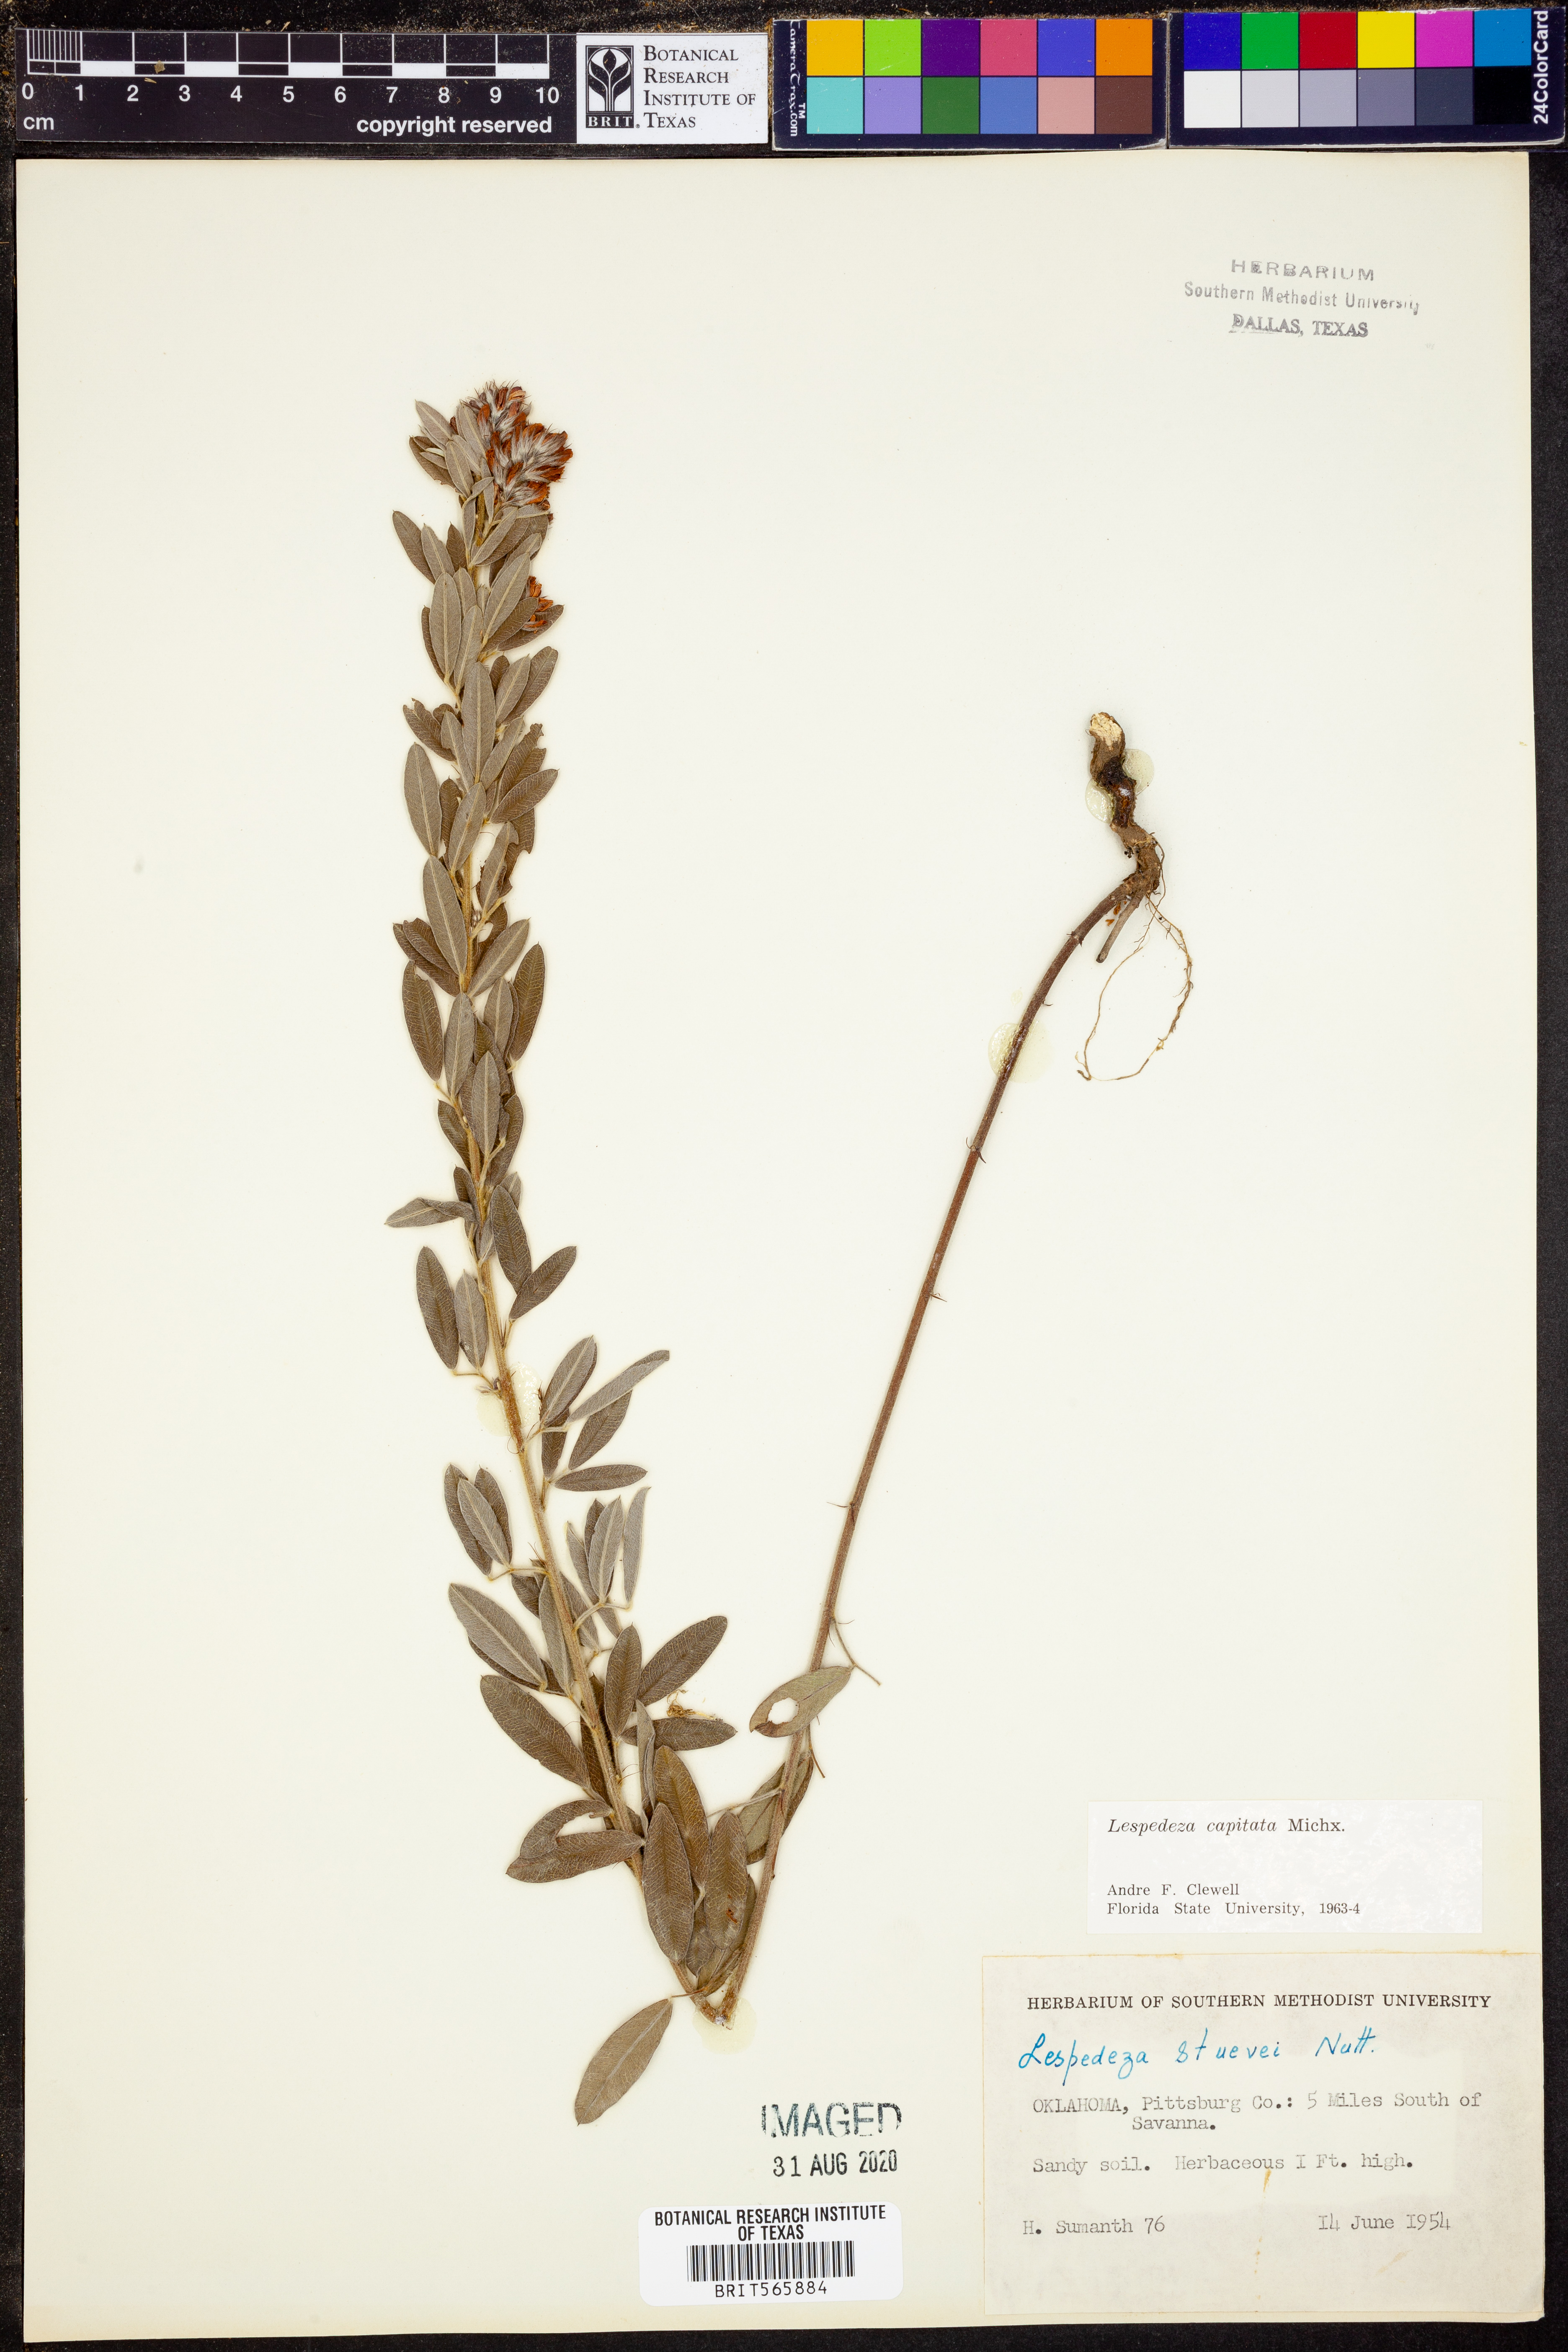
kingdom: Plantae
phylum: Tracheophyta
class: Magnoliopsida
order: Fabales
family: Fabaceae
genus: Lespedeza
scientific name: Lespedeza capitata
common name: Dusty clover
